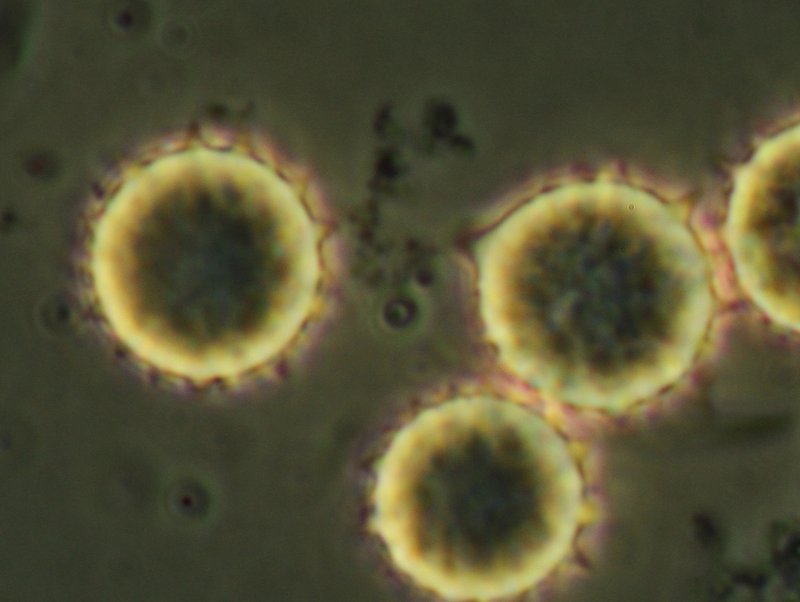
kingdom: Fungi
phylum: Basidiomycota
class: Agaricomycetes
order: Agaricales
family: Hydnangiaceae
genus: Laccaria
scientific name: Laccaria laccata
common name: rød ametysthat
